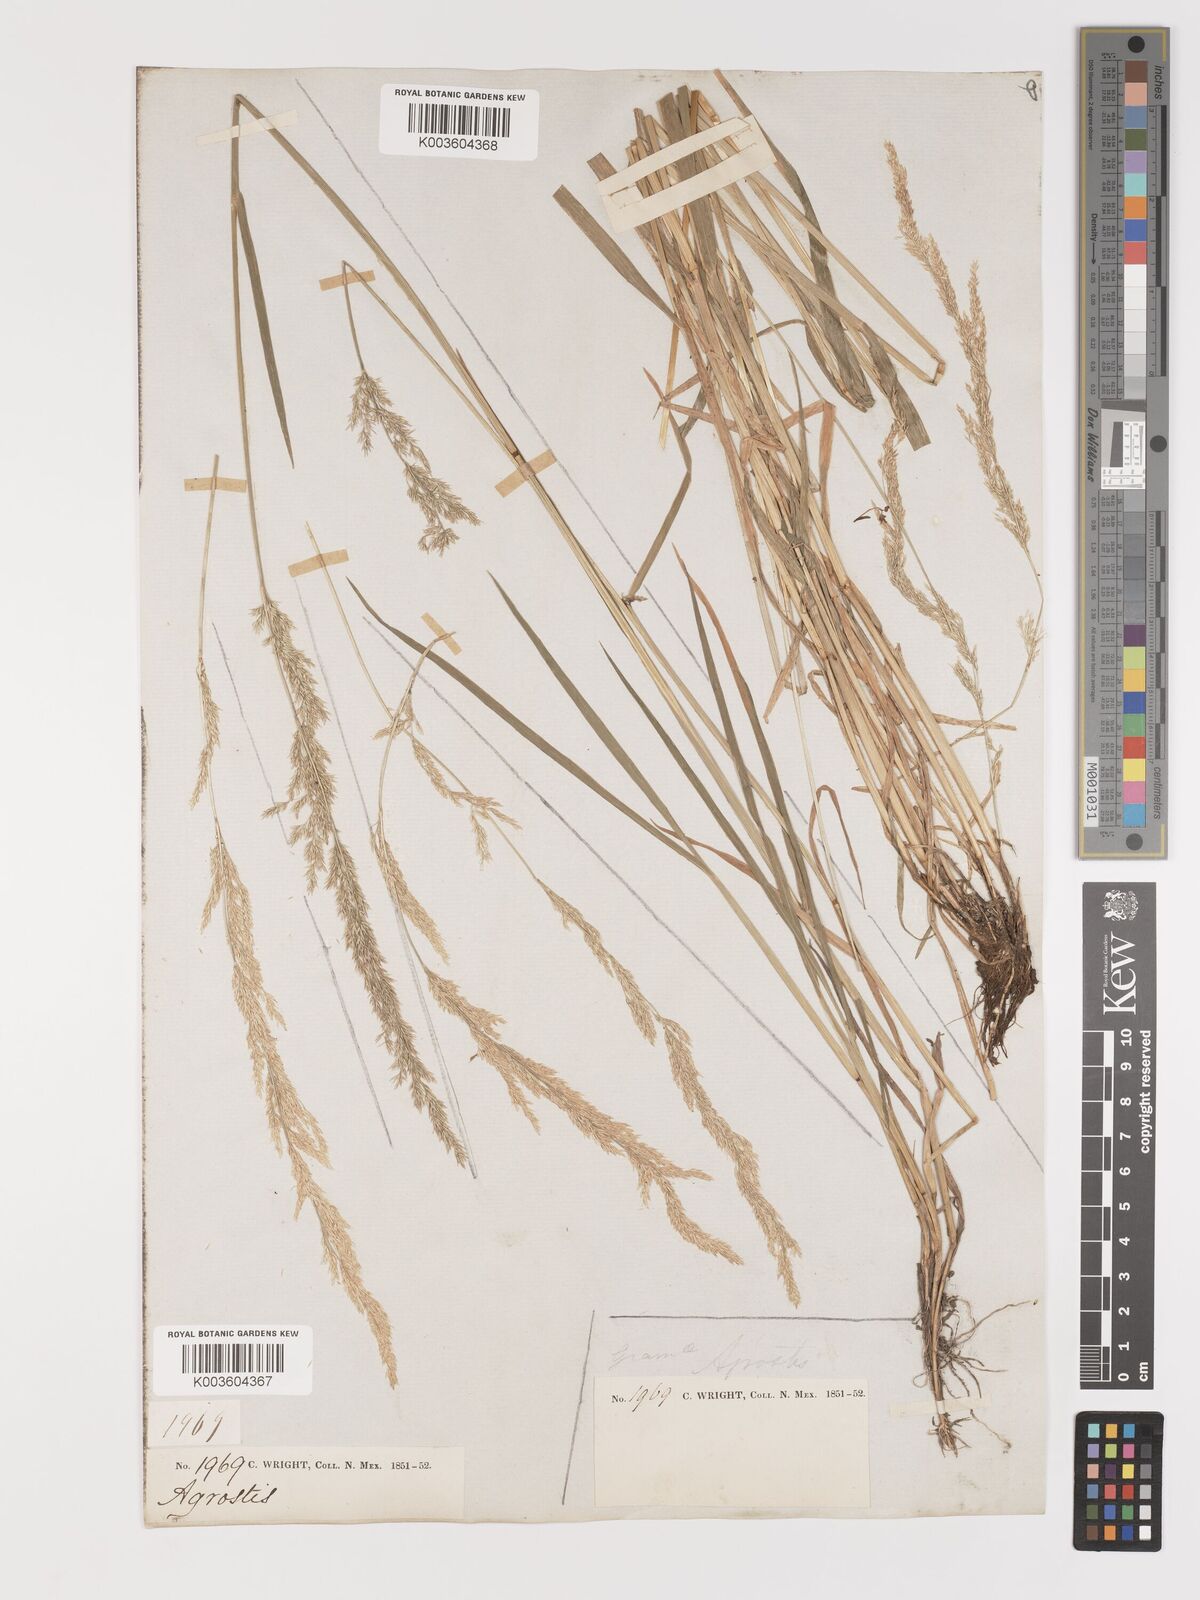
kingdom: Plantae
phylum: Tracheophyta
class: Liliopsida
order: Poales
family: Poaceae
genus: Agrostis
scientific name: Agrostis exarata
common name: Spike bent
